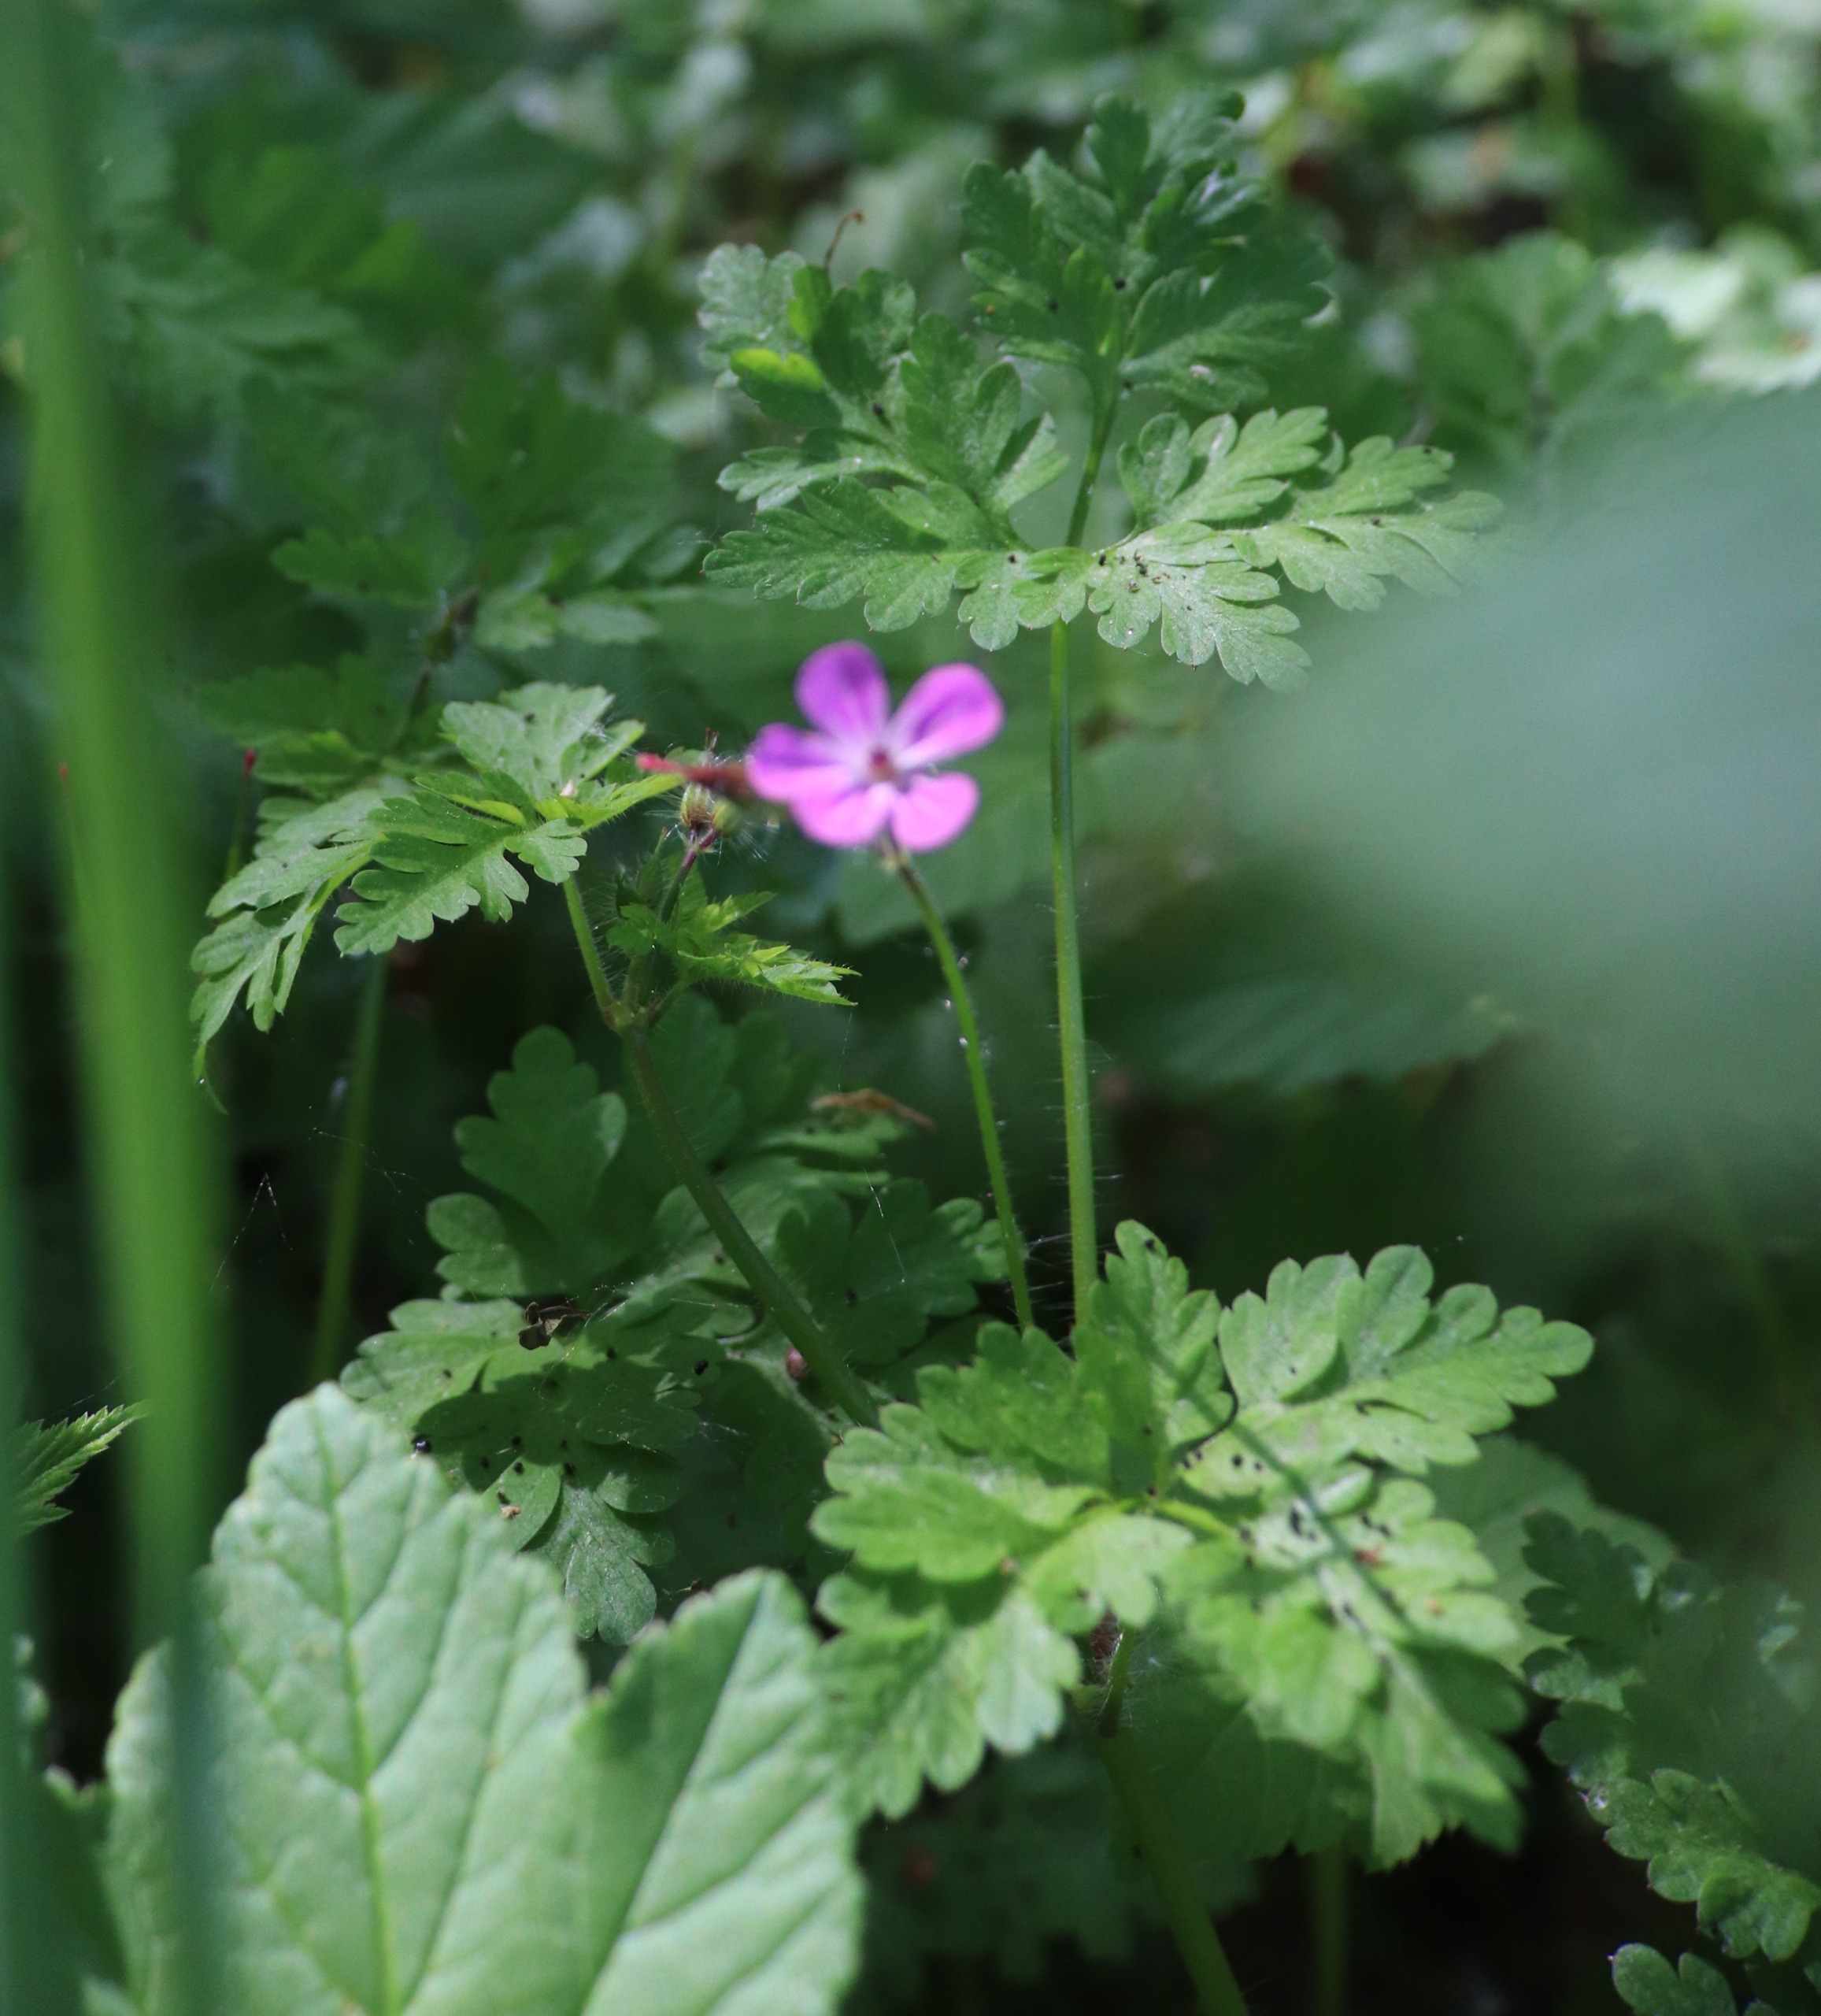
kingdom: Plantae
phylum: Tracheophyta
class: Magnoliopsida
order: Geraniales
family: Geraniaceae
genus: Geranium
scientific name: Geranium robertianum
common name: Stinkende storkenæb
